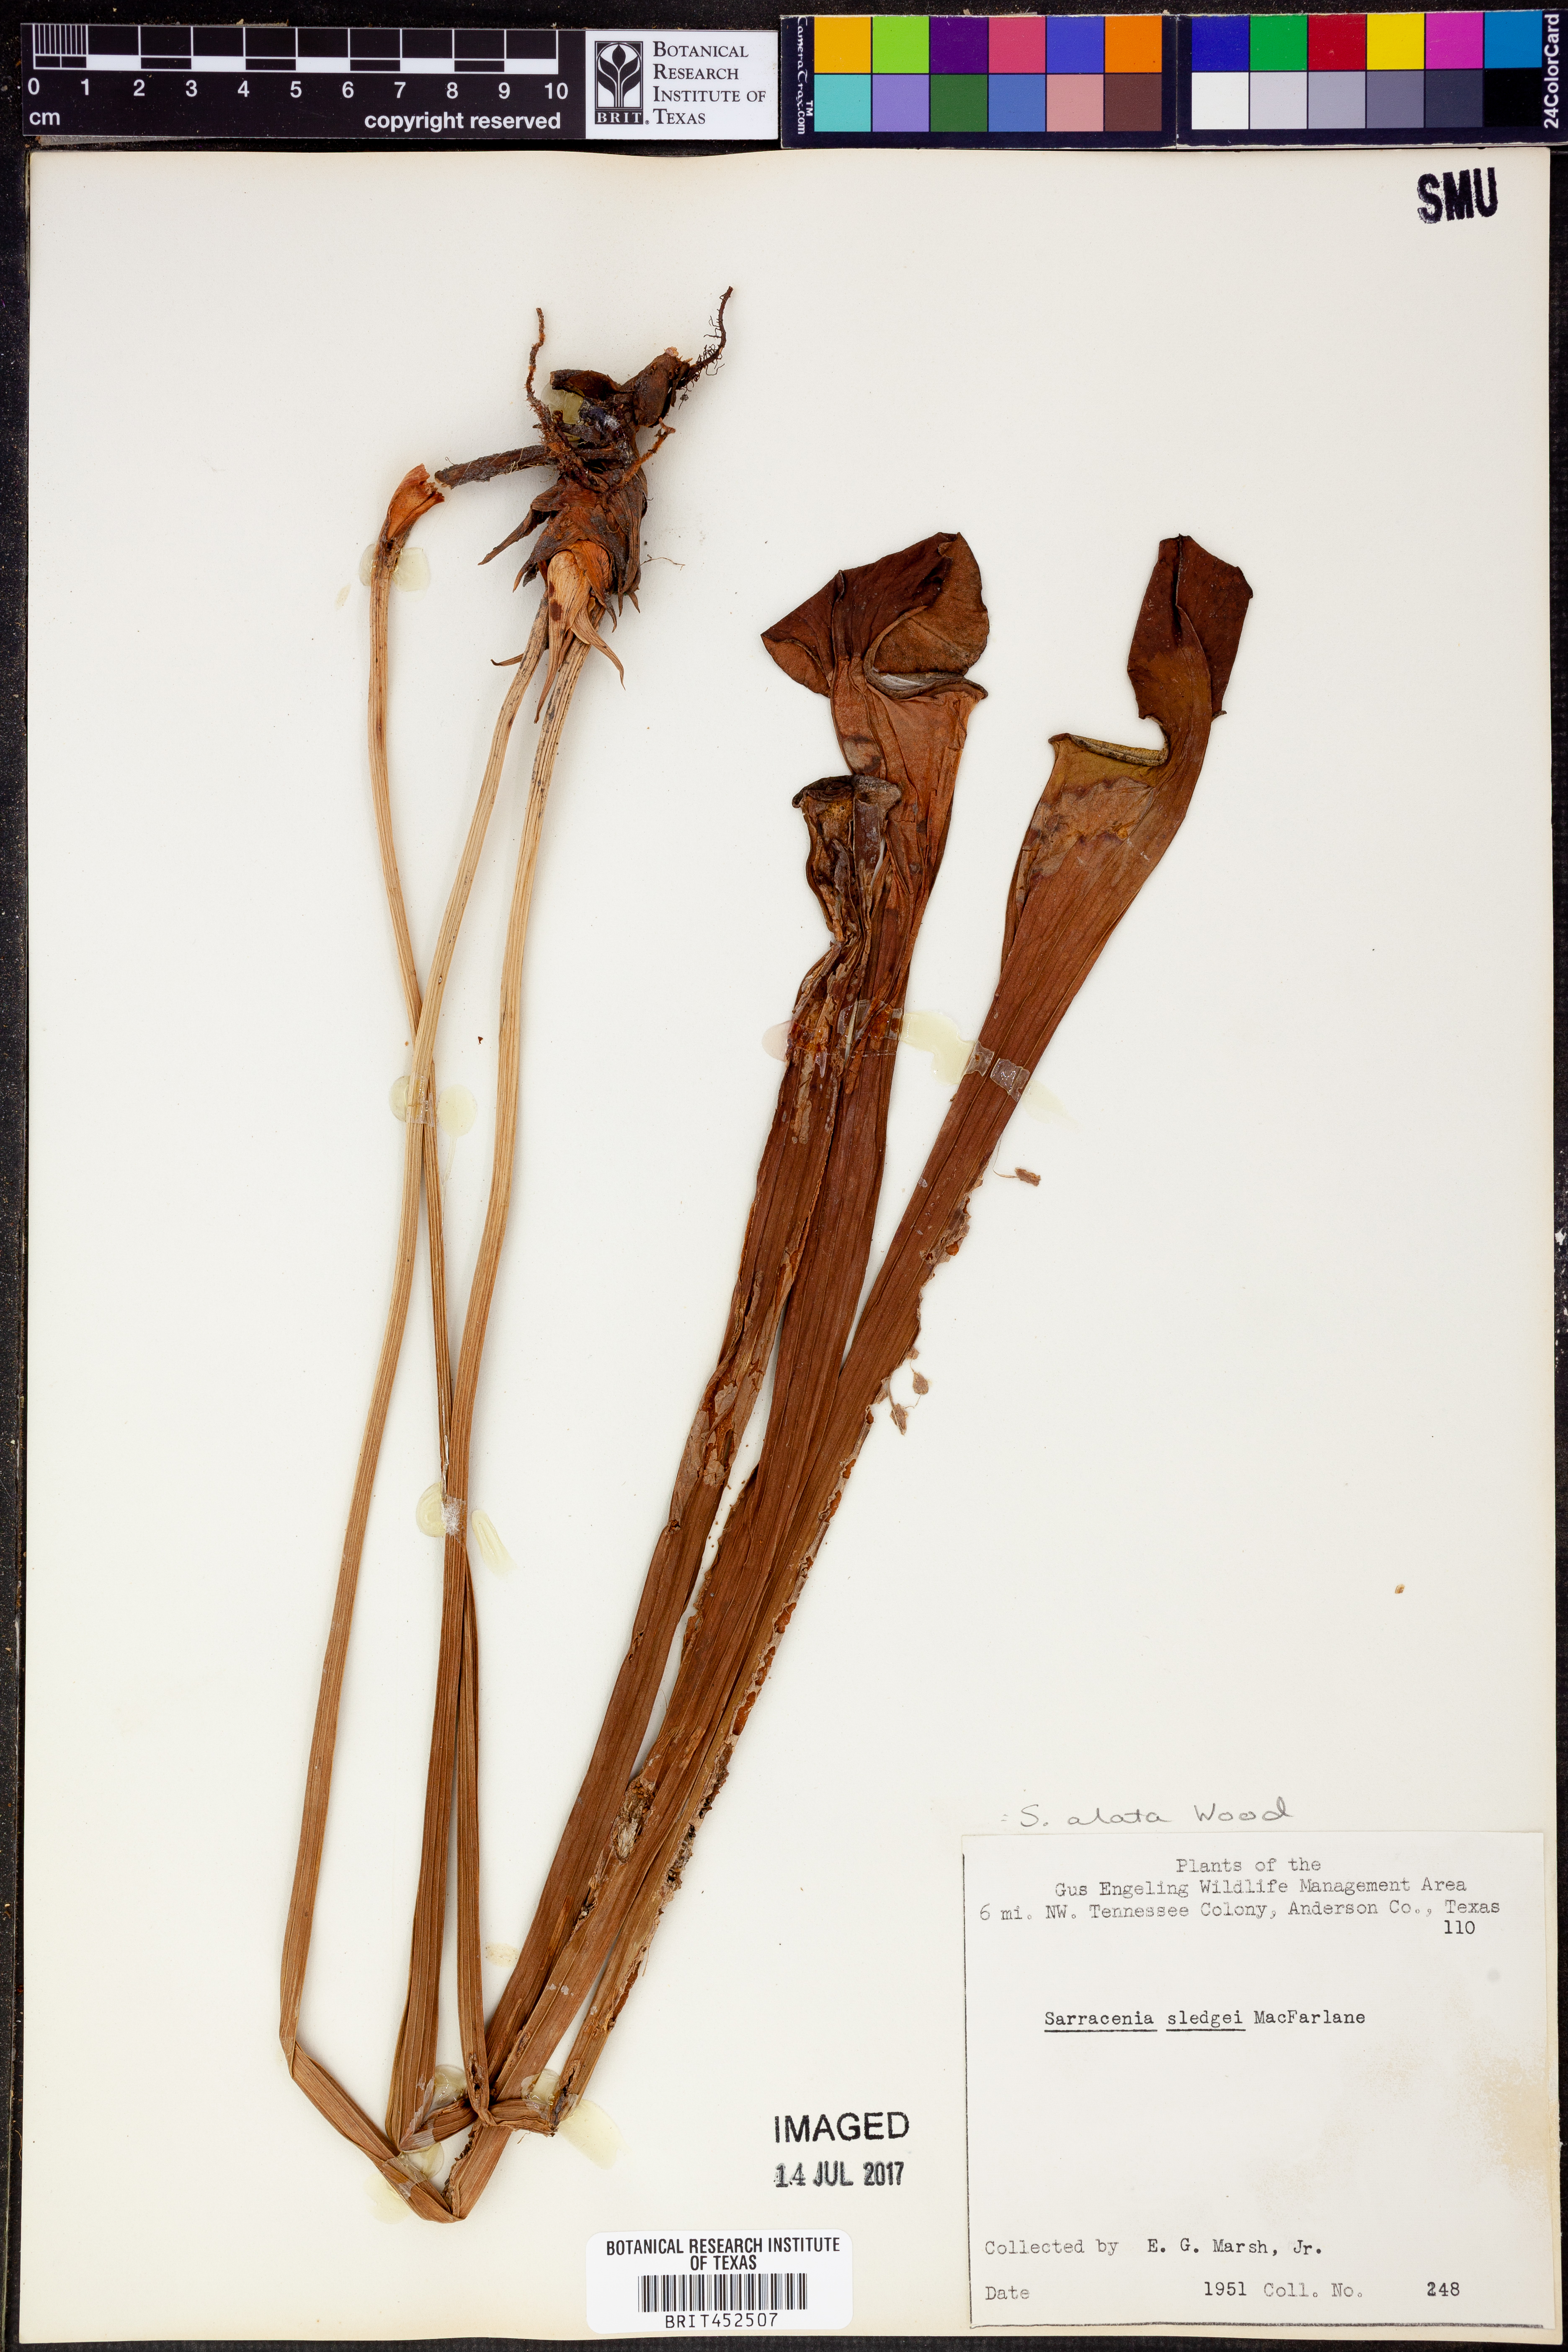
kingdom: Plantae
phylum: Tracheophyta
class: Magnoliopsida
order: Ericales
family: Sarraceniaceae
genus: Sarracenia
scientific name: Sarracenia alata
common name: Yellow trumpets
